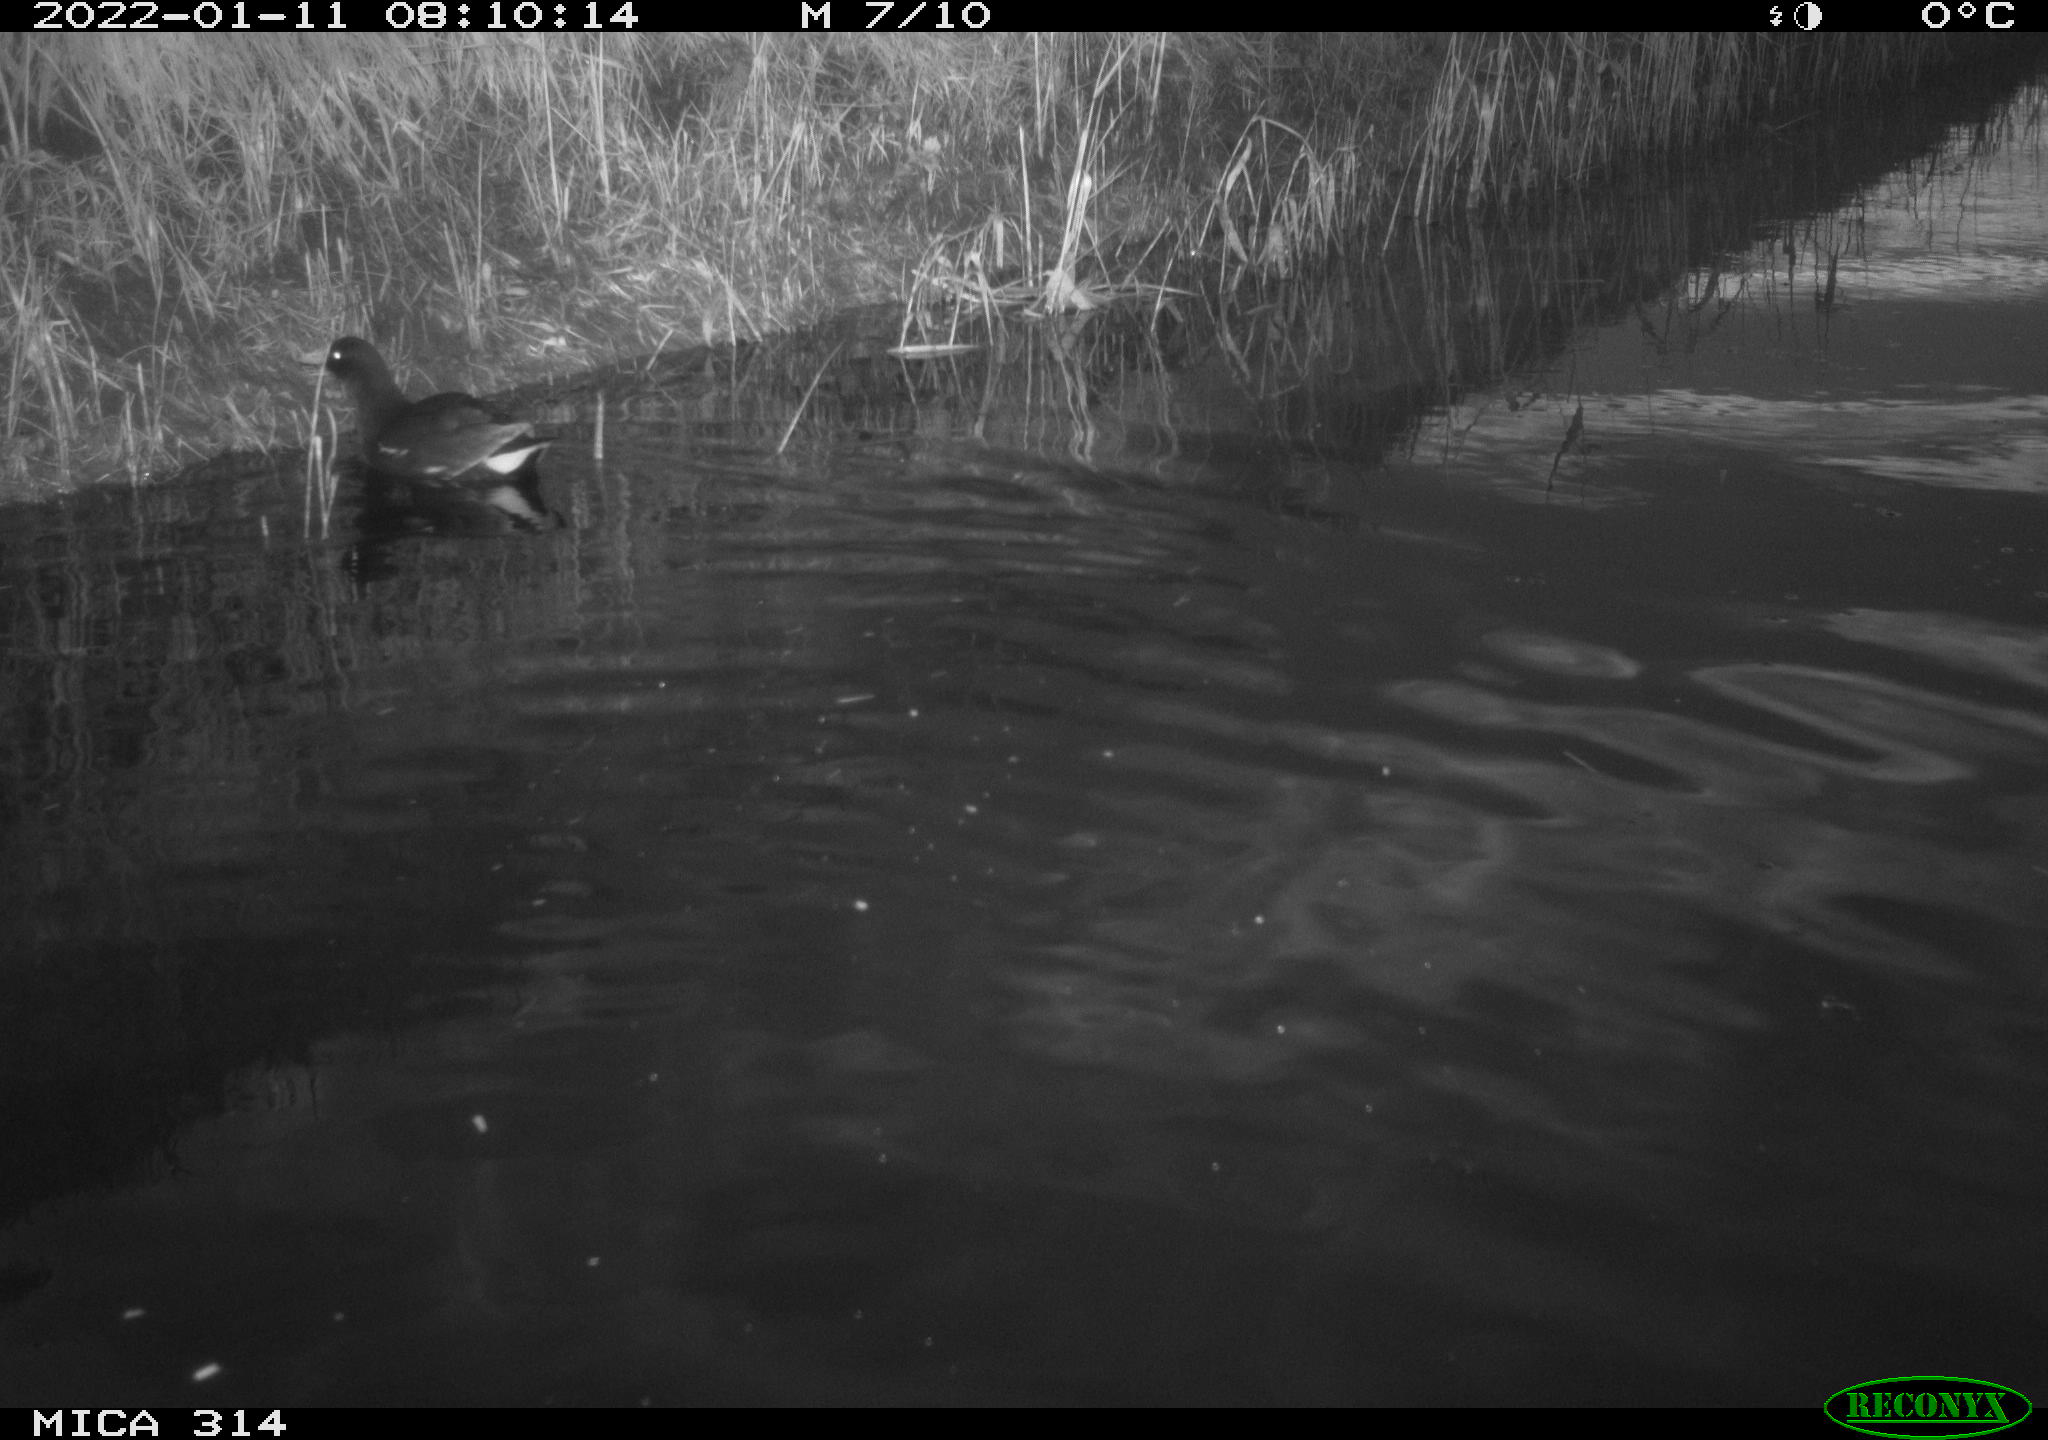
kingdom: Animalia
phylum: Chordata
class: Aves
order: Gruiformes
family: Rallidae
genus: Gallinula
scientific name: Gallinula chloropus
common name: Common moorhen
